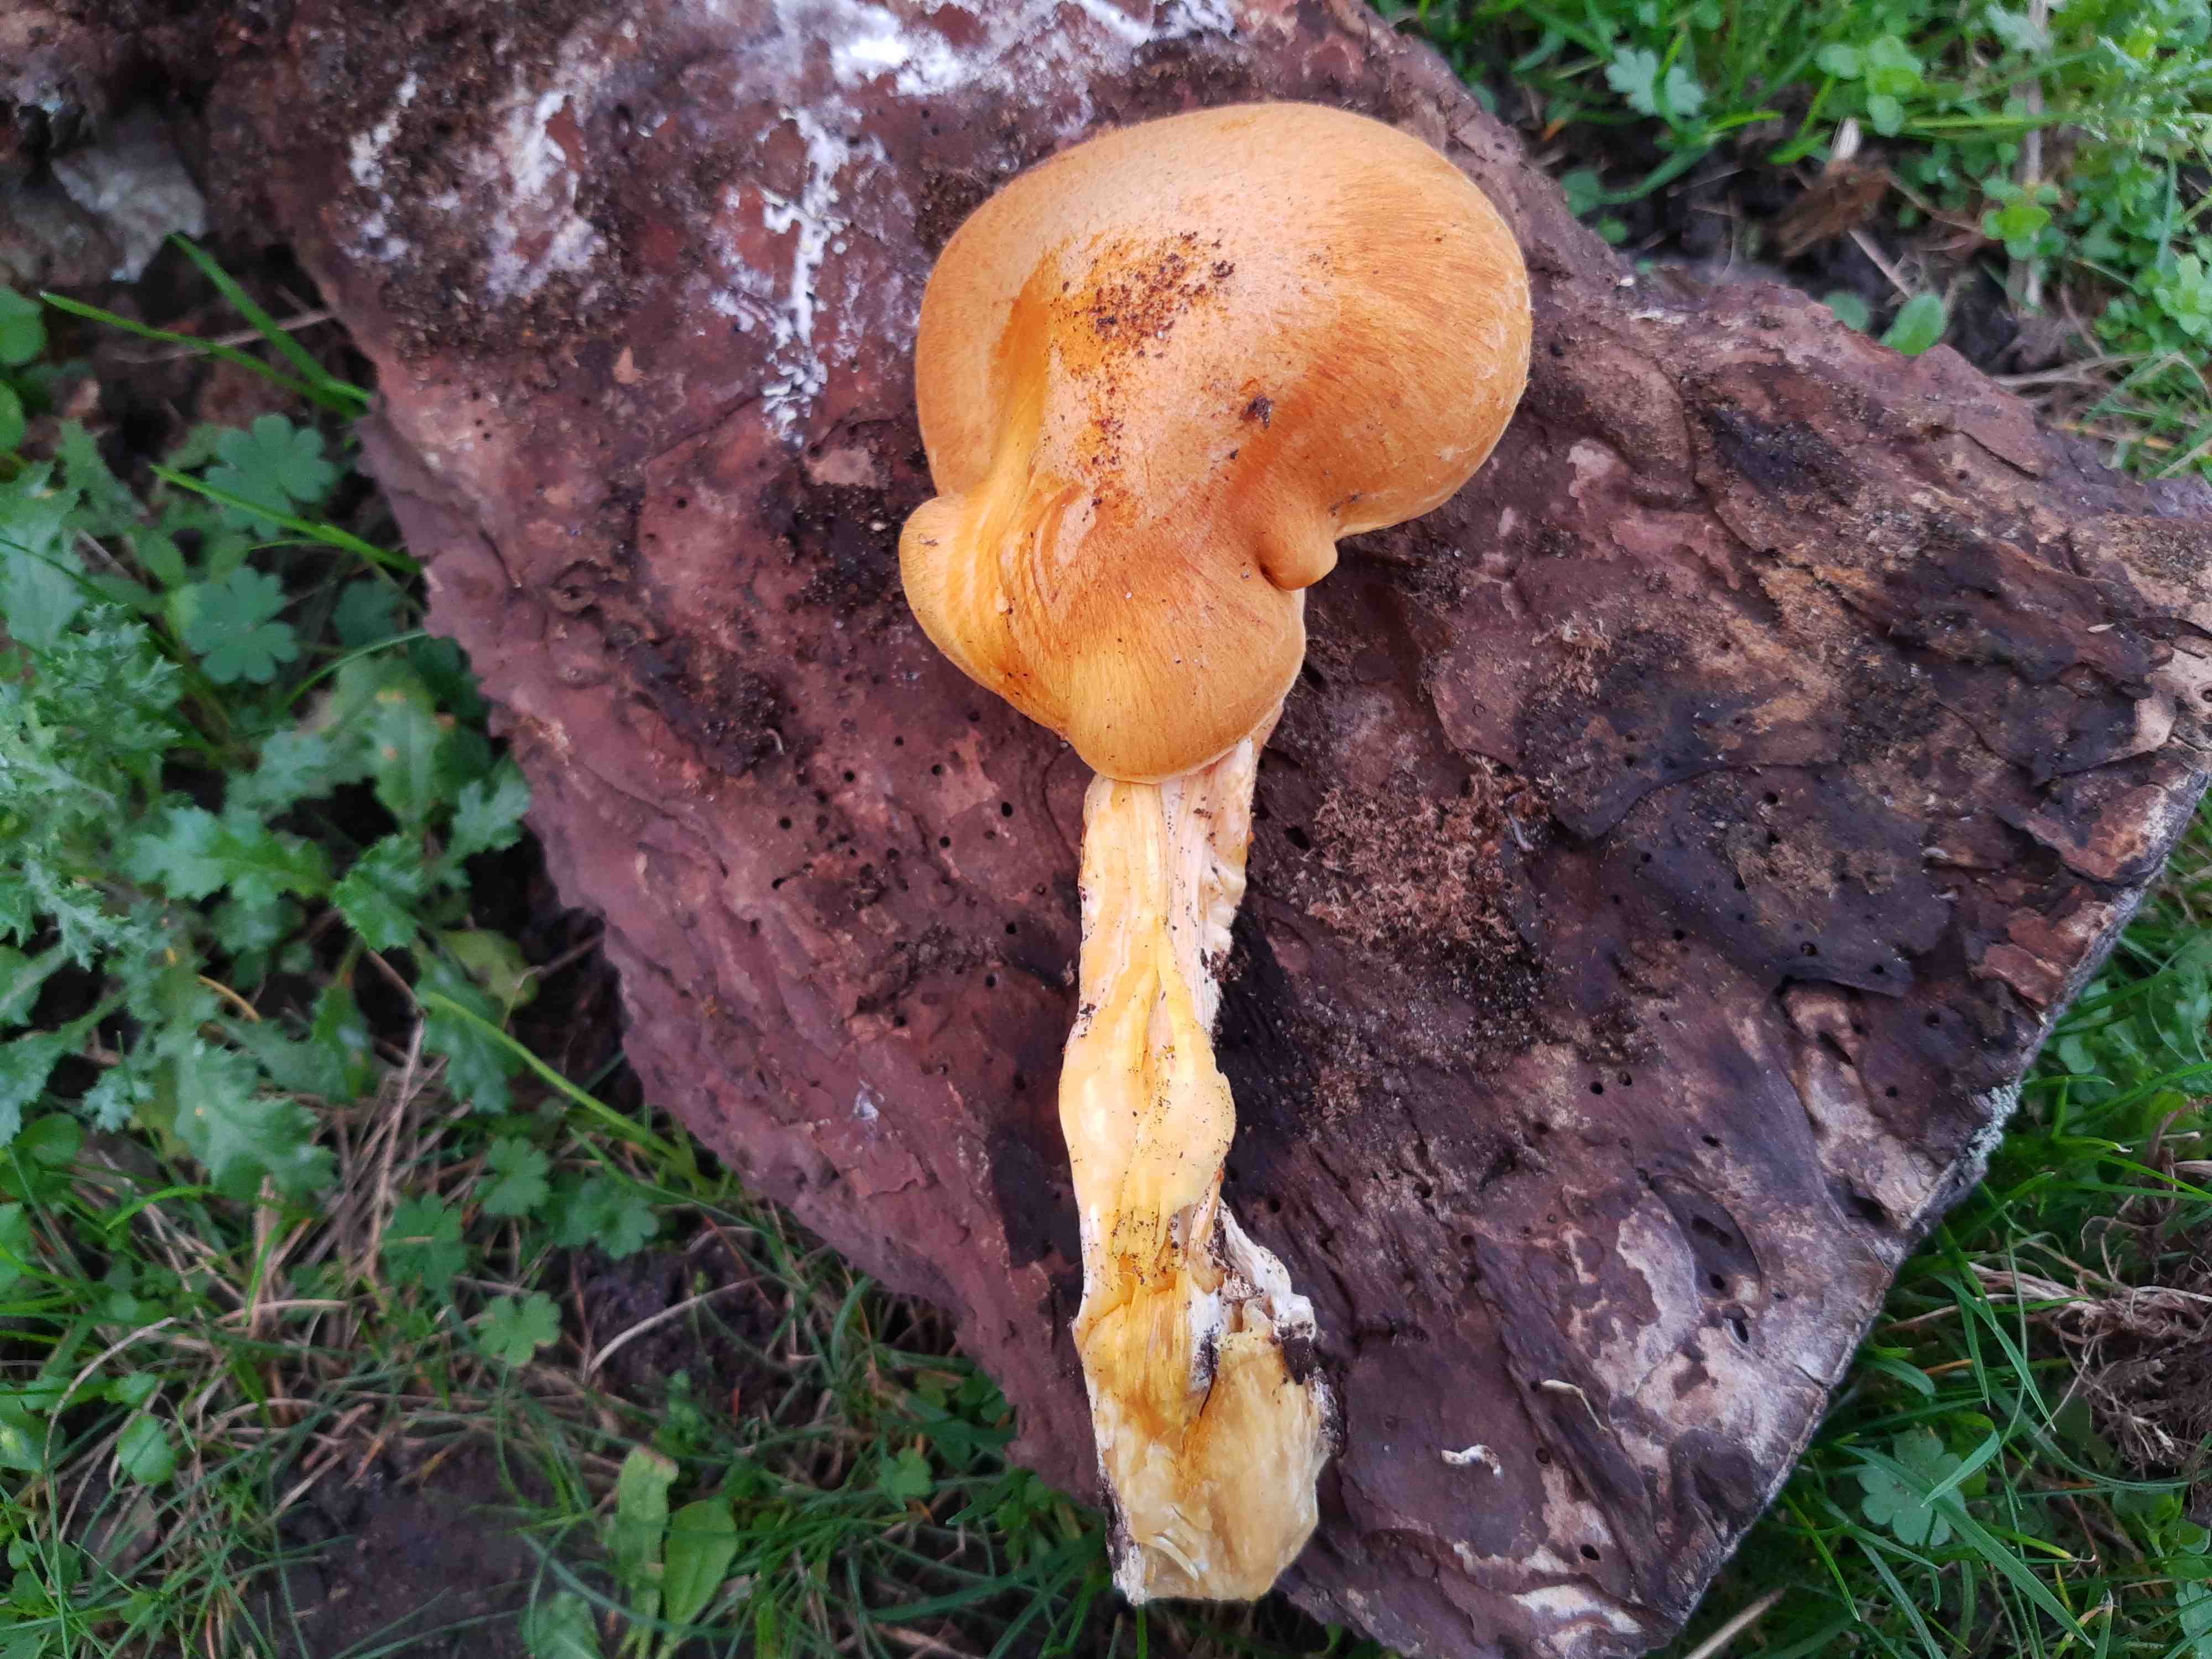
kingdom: Fungi
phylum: Basidiomycota
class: Agaricomycetes
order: Agaricales
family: Hymenogastraceae
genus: Gymnopilus
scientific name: Gymnopilus spectabilis
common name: fibret flammehat
